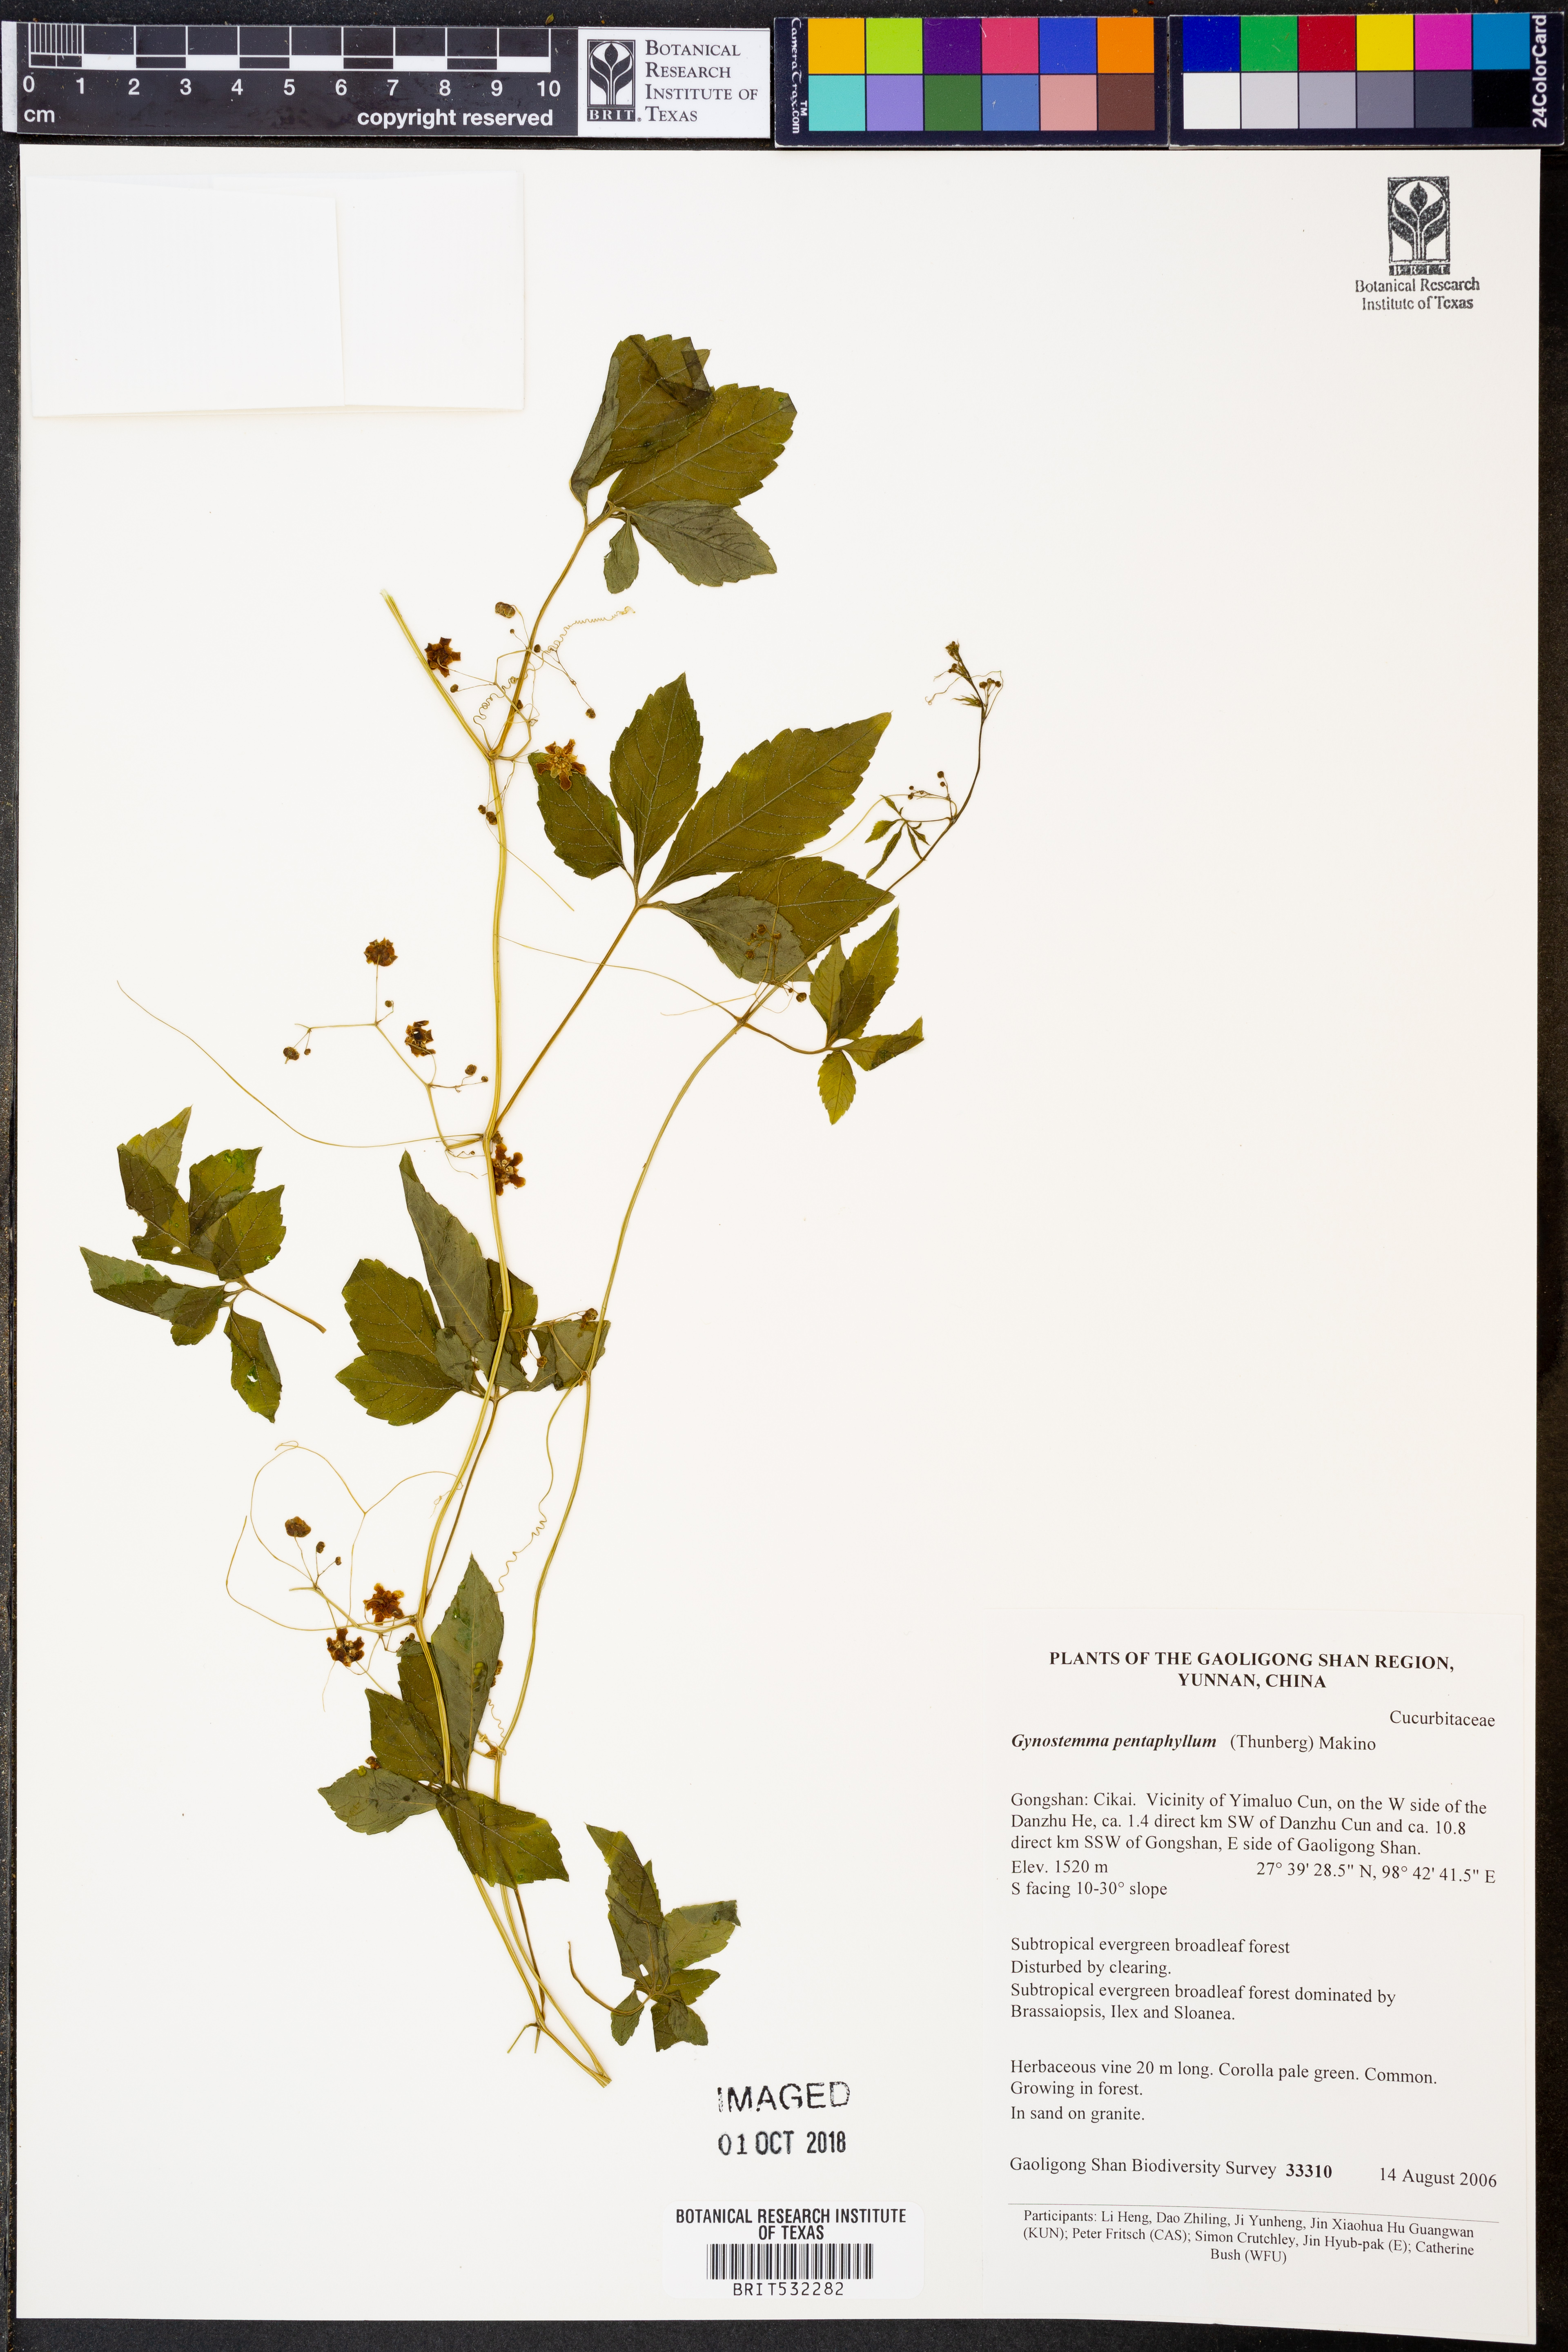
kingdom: Plantae
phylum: Tracheophyta
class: Magnoliopsida
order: Cucurbitales
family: Cucurbitaceae
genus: Hemsleya
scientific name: Hemsleya
